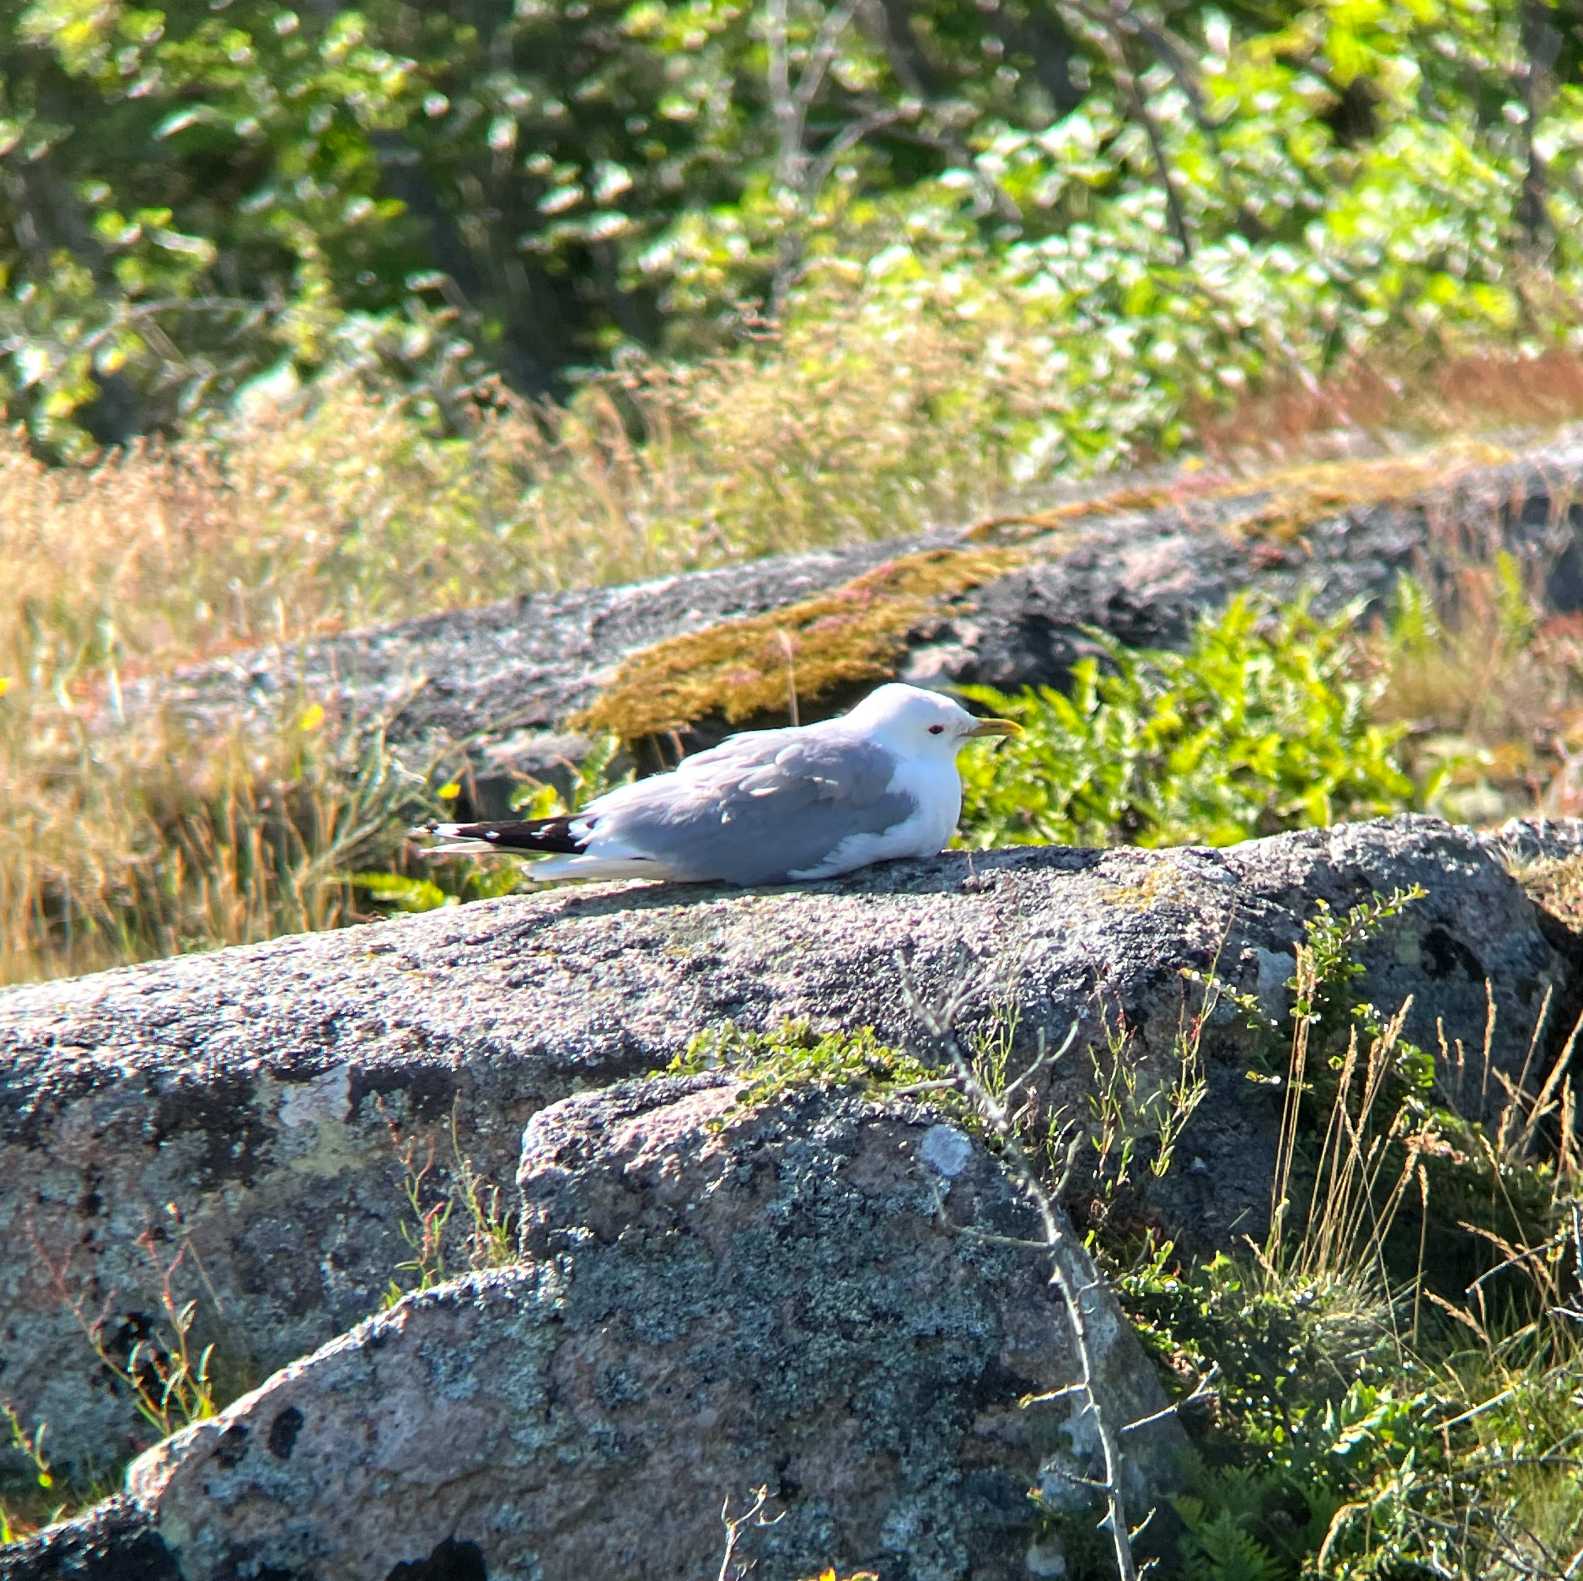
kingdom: Animalia
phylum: Chordata
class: Aves
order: Charadriiformes
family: Laridae
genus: Larus
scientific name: Larus canus
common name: Stormmåge
